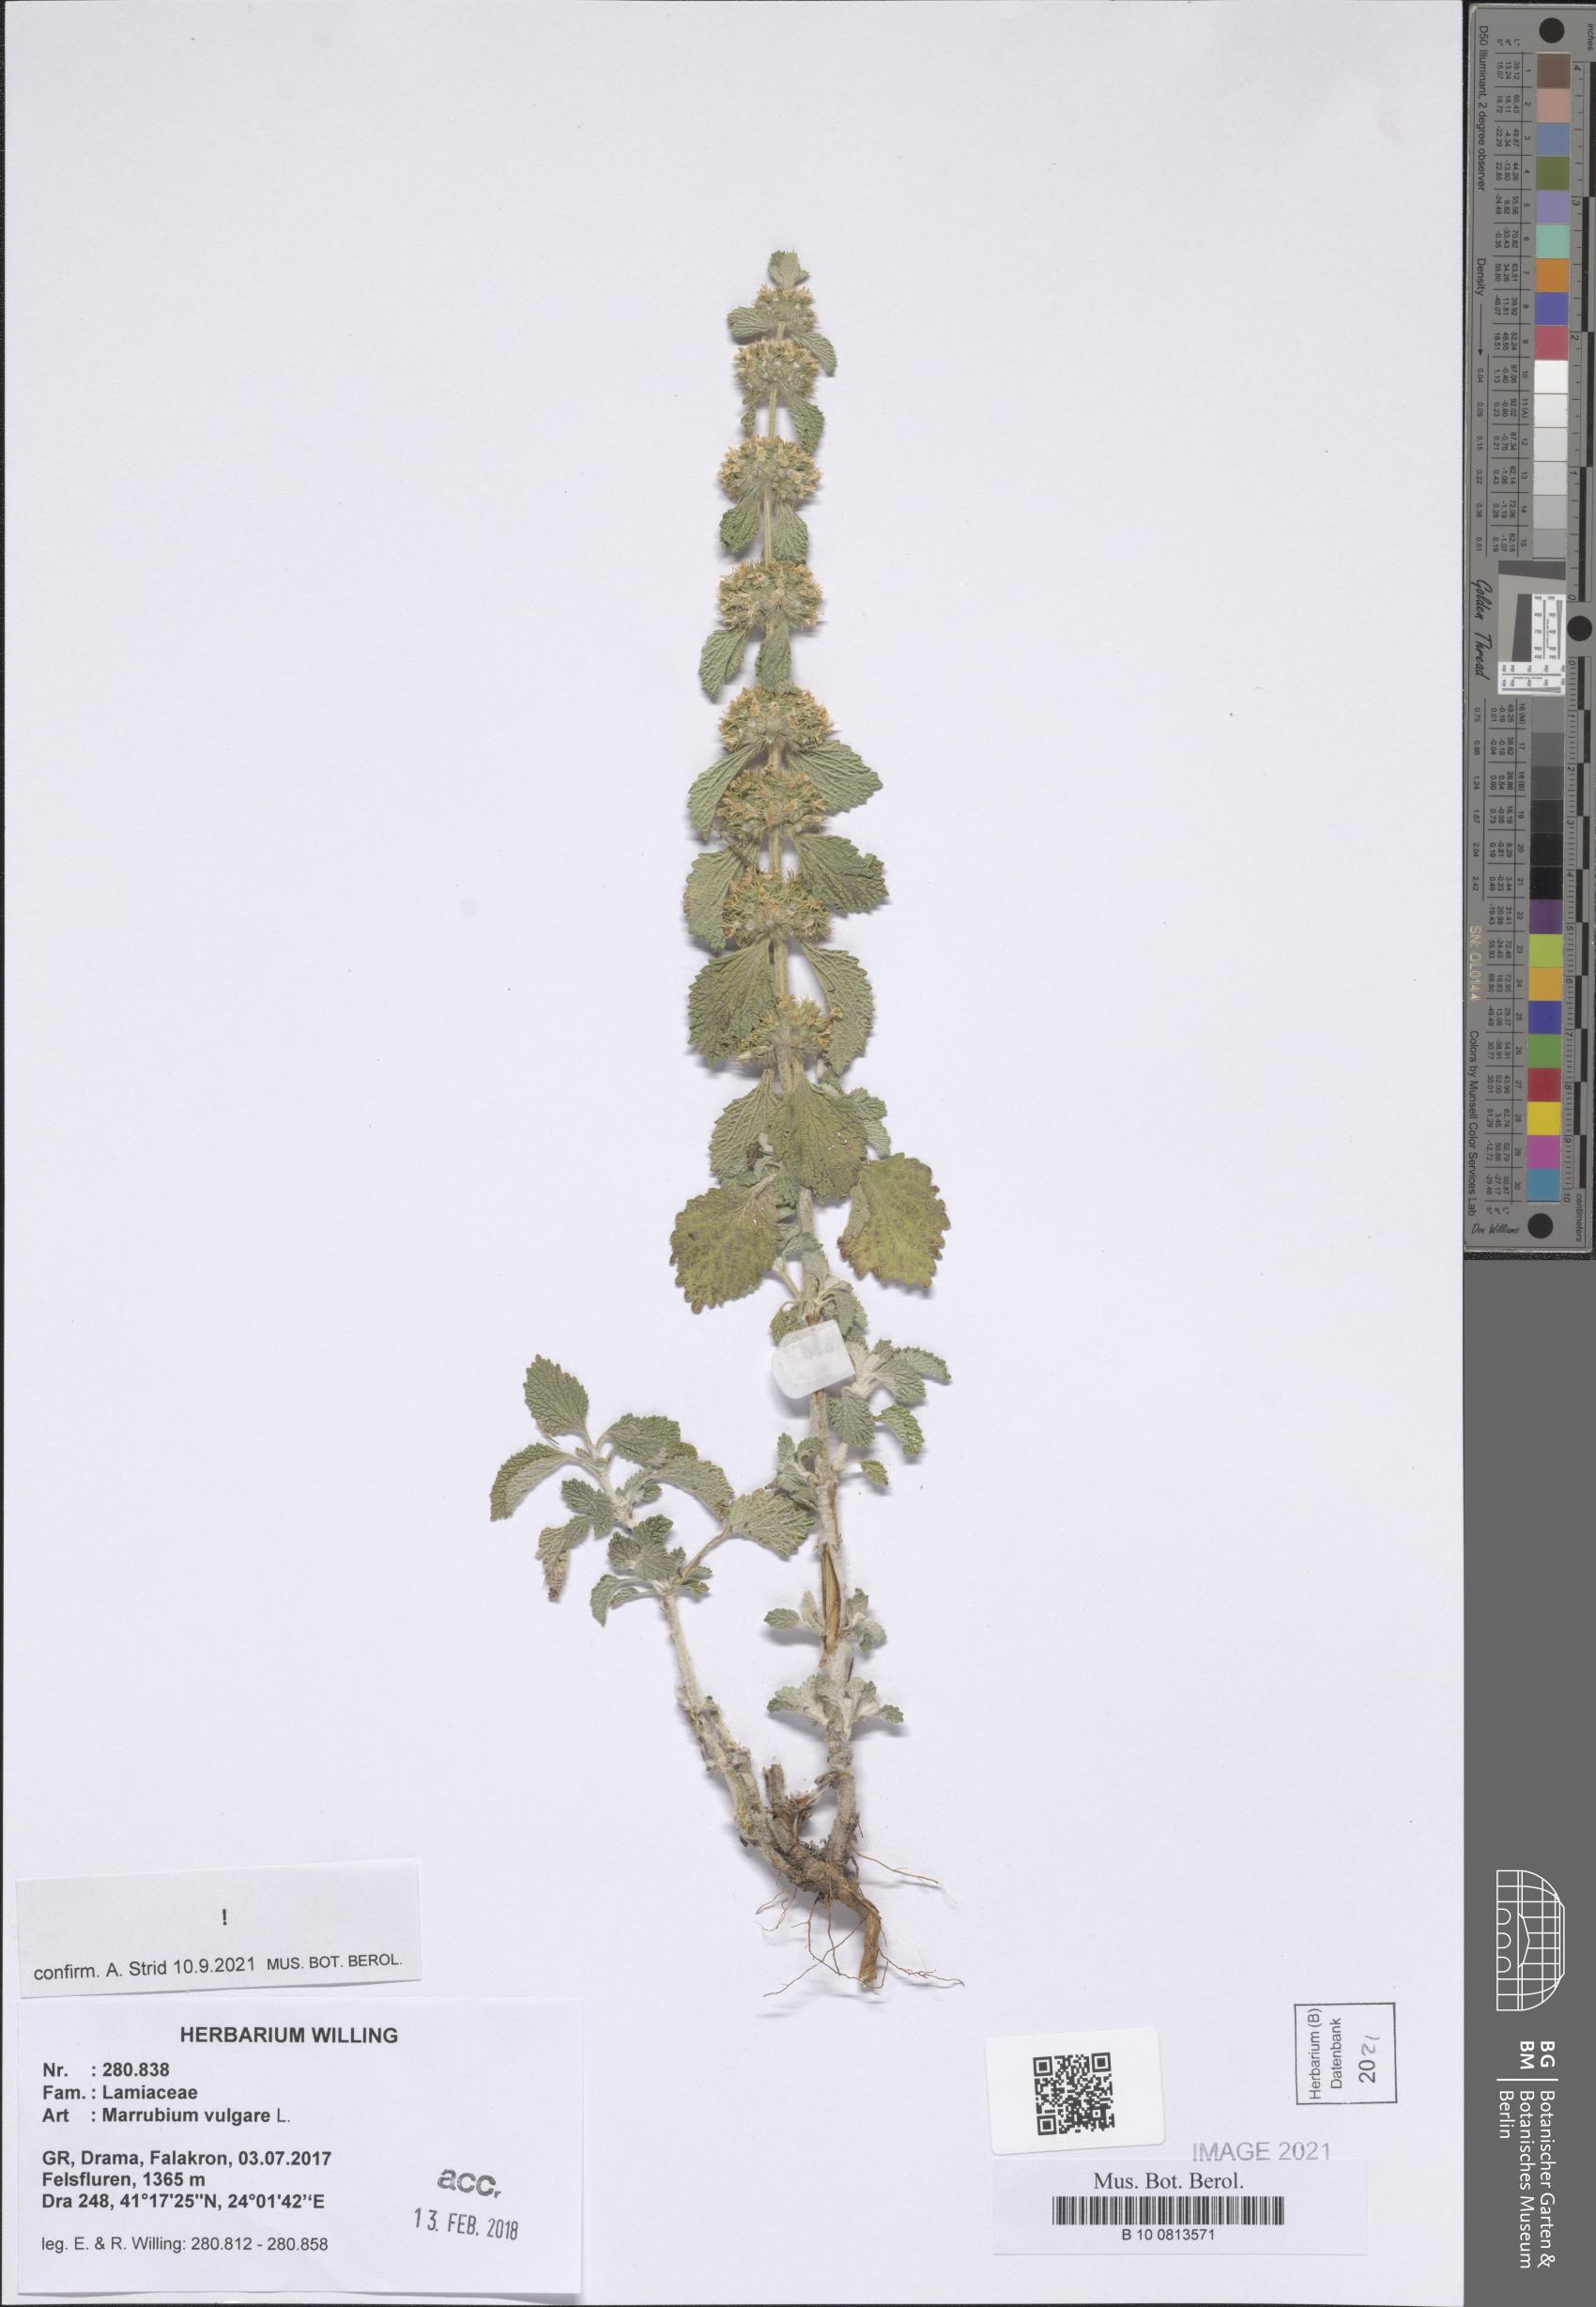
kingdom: Plantae
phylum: Tracheophyta
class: Magnoliopsida
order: Lamiales
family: Lamiaceae
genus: Marrubium
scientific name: Marrubium vulgare
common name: Horehound
